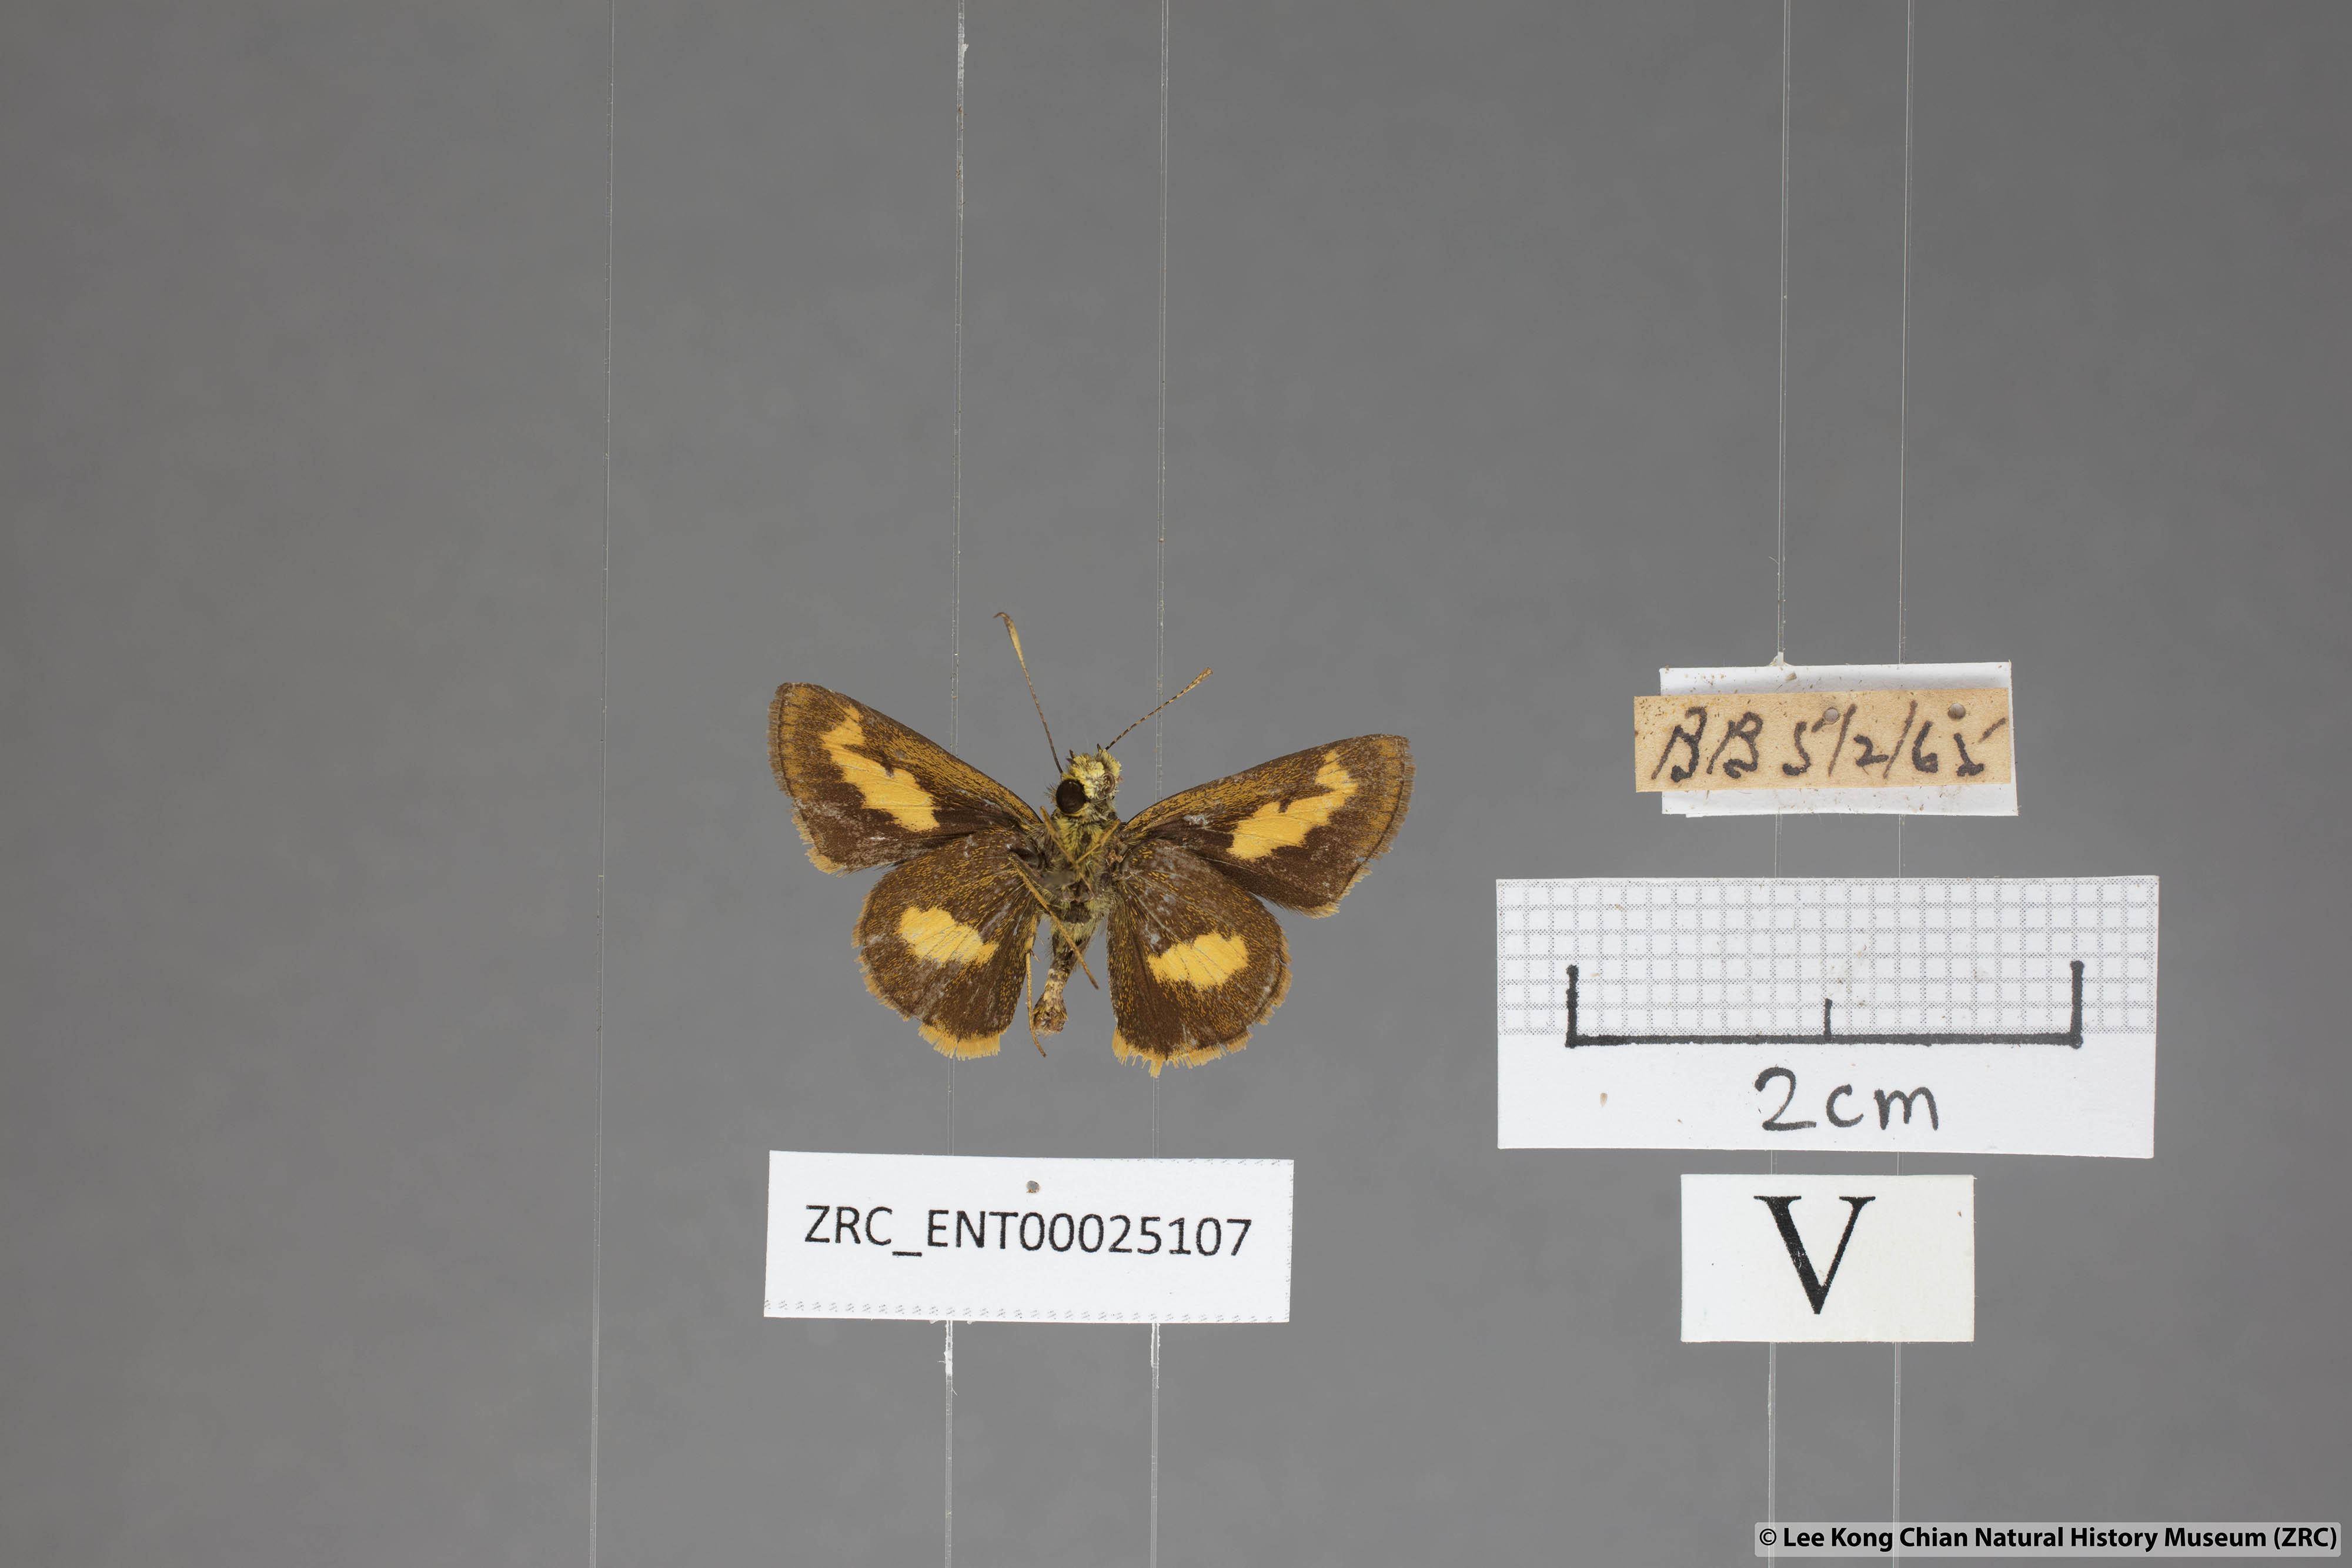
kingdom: Animalia
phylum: Arthropoda
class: Insecta
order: Lepidoptera
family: Hesperiidae
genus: Oriens
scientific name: Oriens paragola
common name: Malay dartlet
